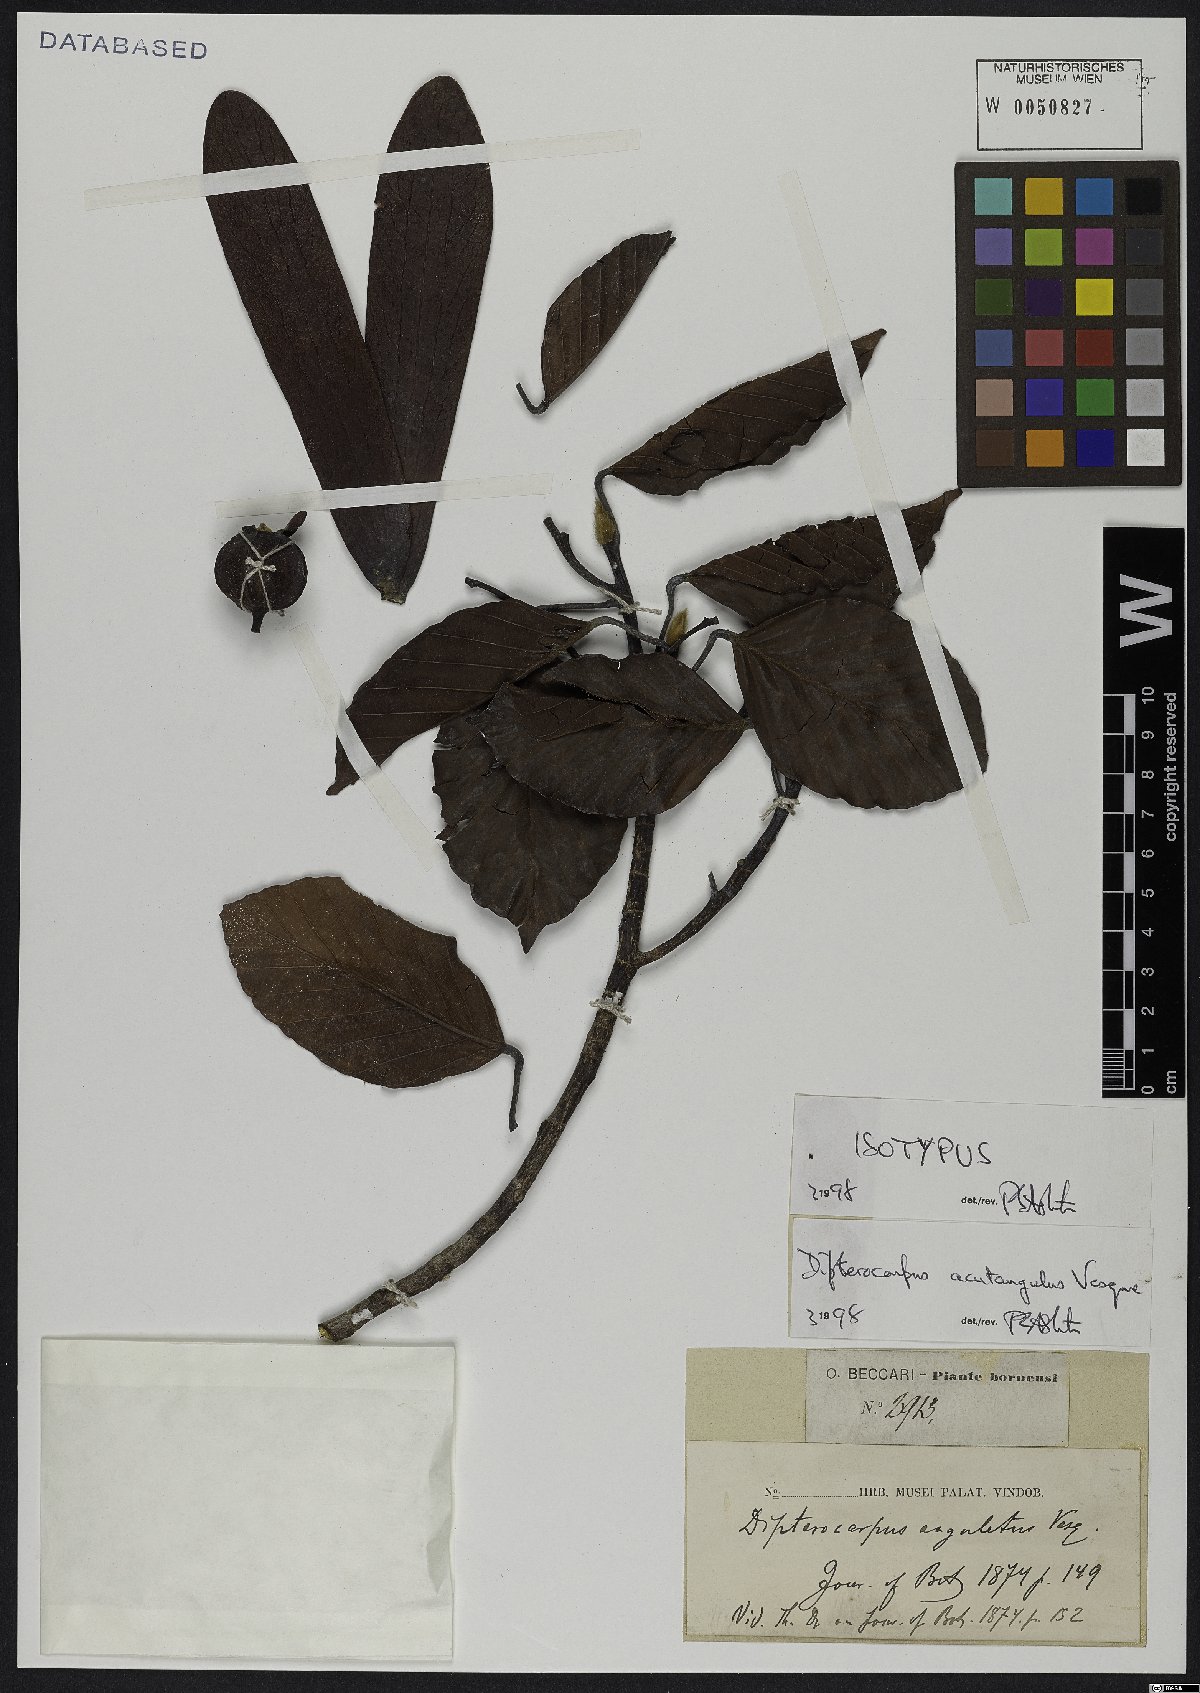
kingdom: Plantae
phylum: Tracheophyta
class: Magnoliopsida
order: Malvales
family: Dipterocarpaceae
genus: Dipterocarpus
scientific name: Dipterocarpus acutangulus
